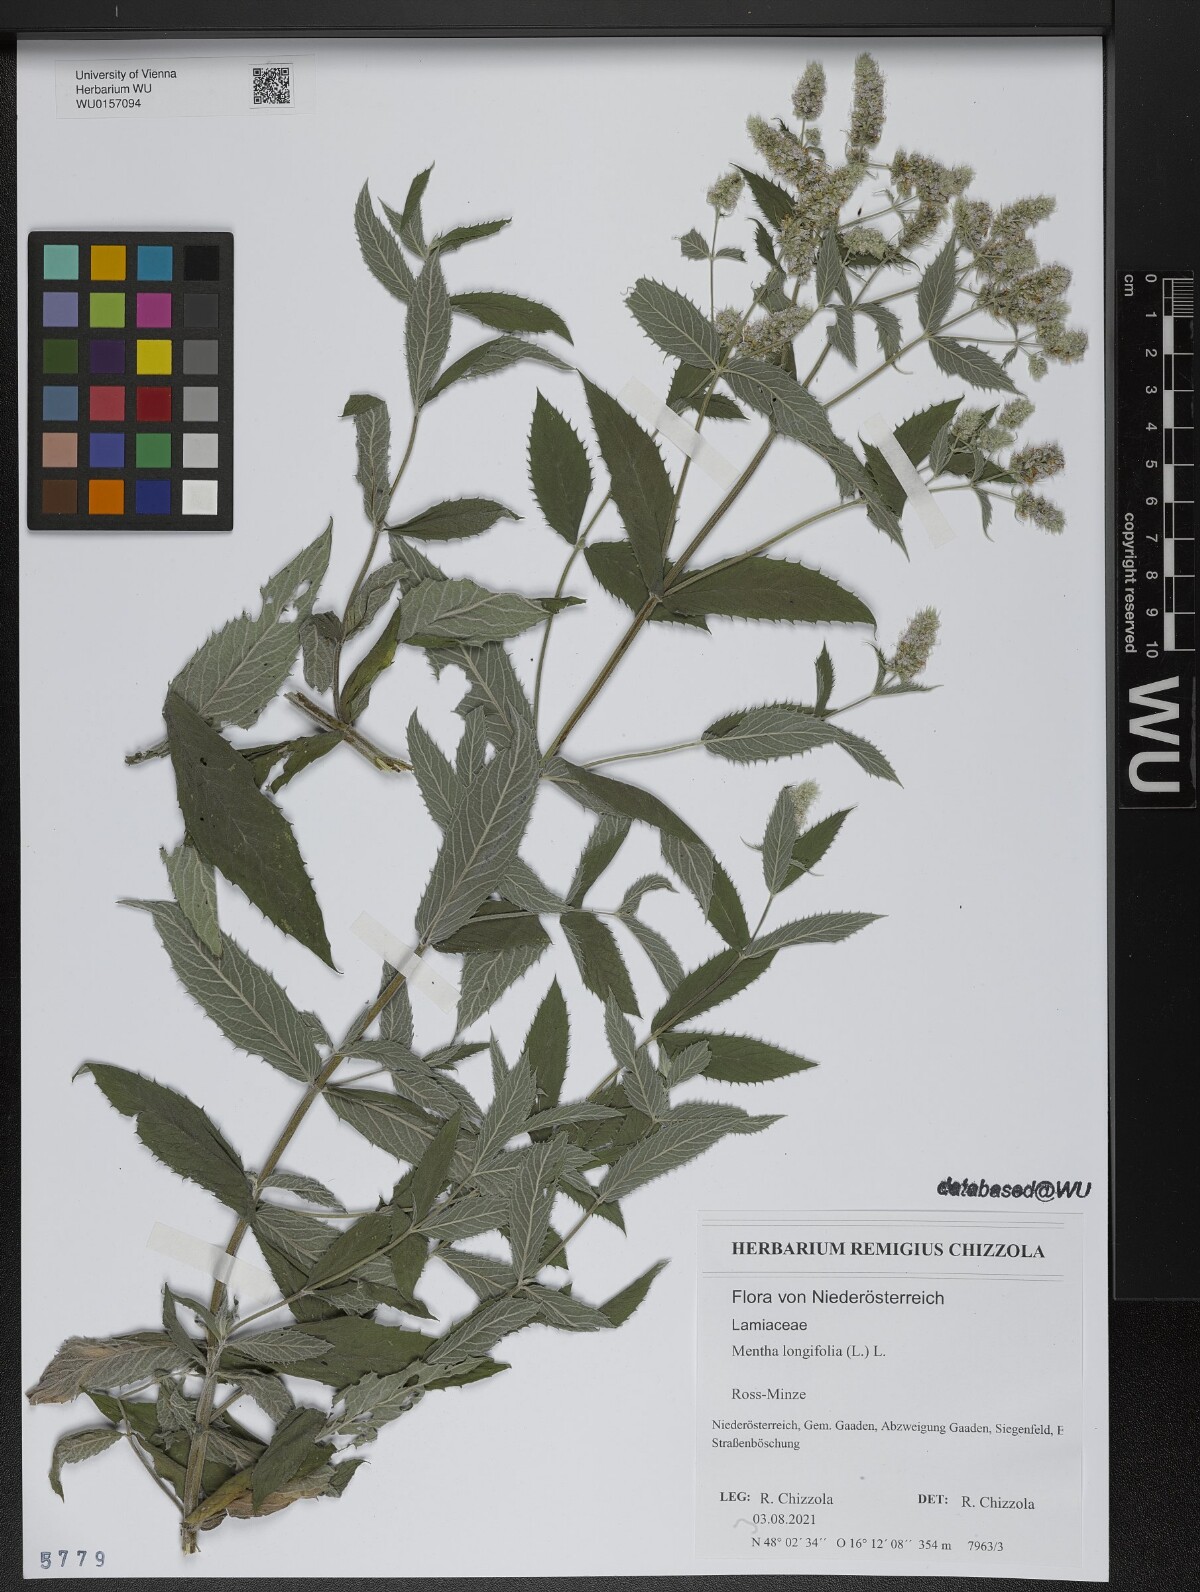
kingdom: Plantae
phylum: Tracheophyta
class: Magnoliopsida
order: Lamiales
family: Lamiaceae
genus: Mentha
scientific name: Mentha longifolia
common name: Horse mint
